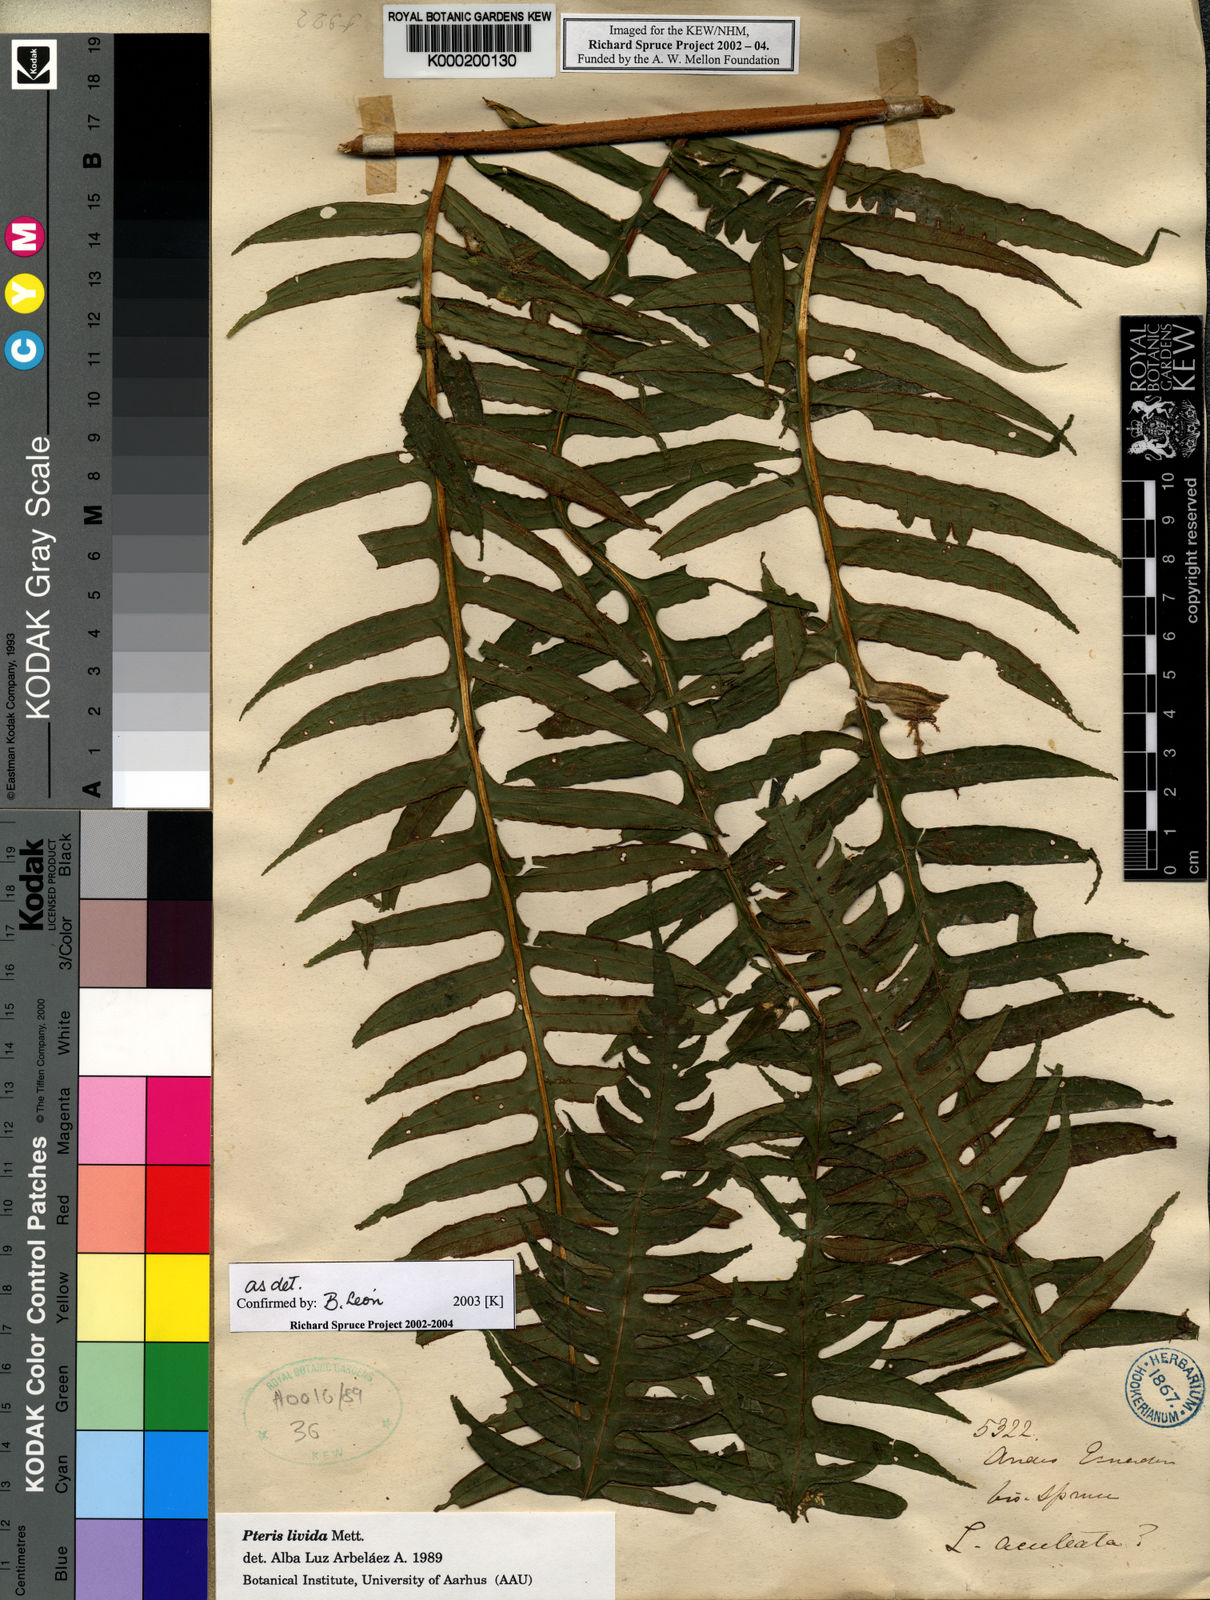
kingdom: Plantae
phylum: Tracheophyta
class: Polypodiopsida
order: Polypodiales
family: Pteridaceae
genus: Pteris
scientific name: Pteris livida
